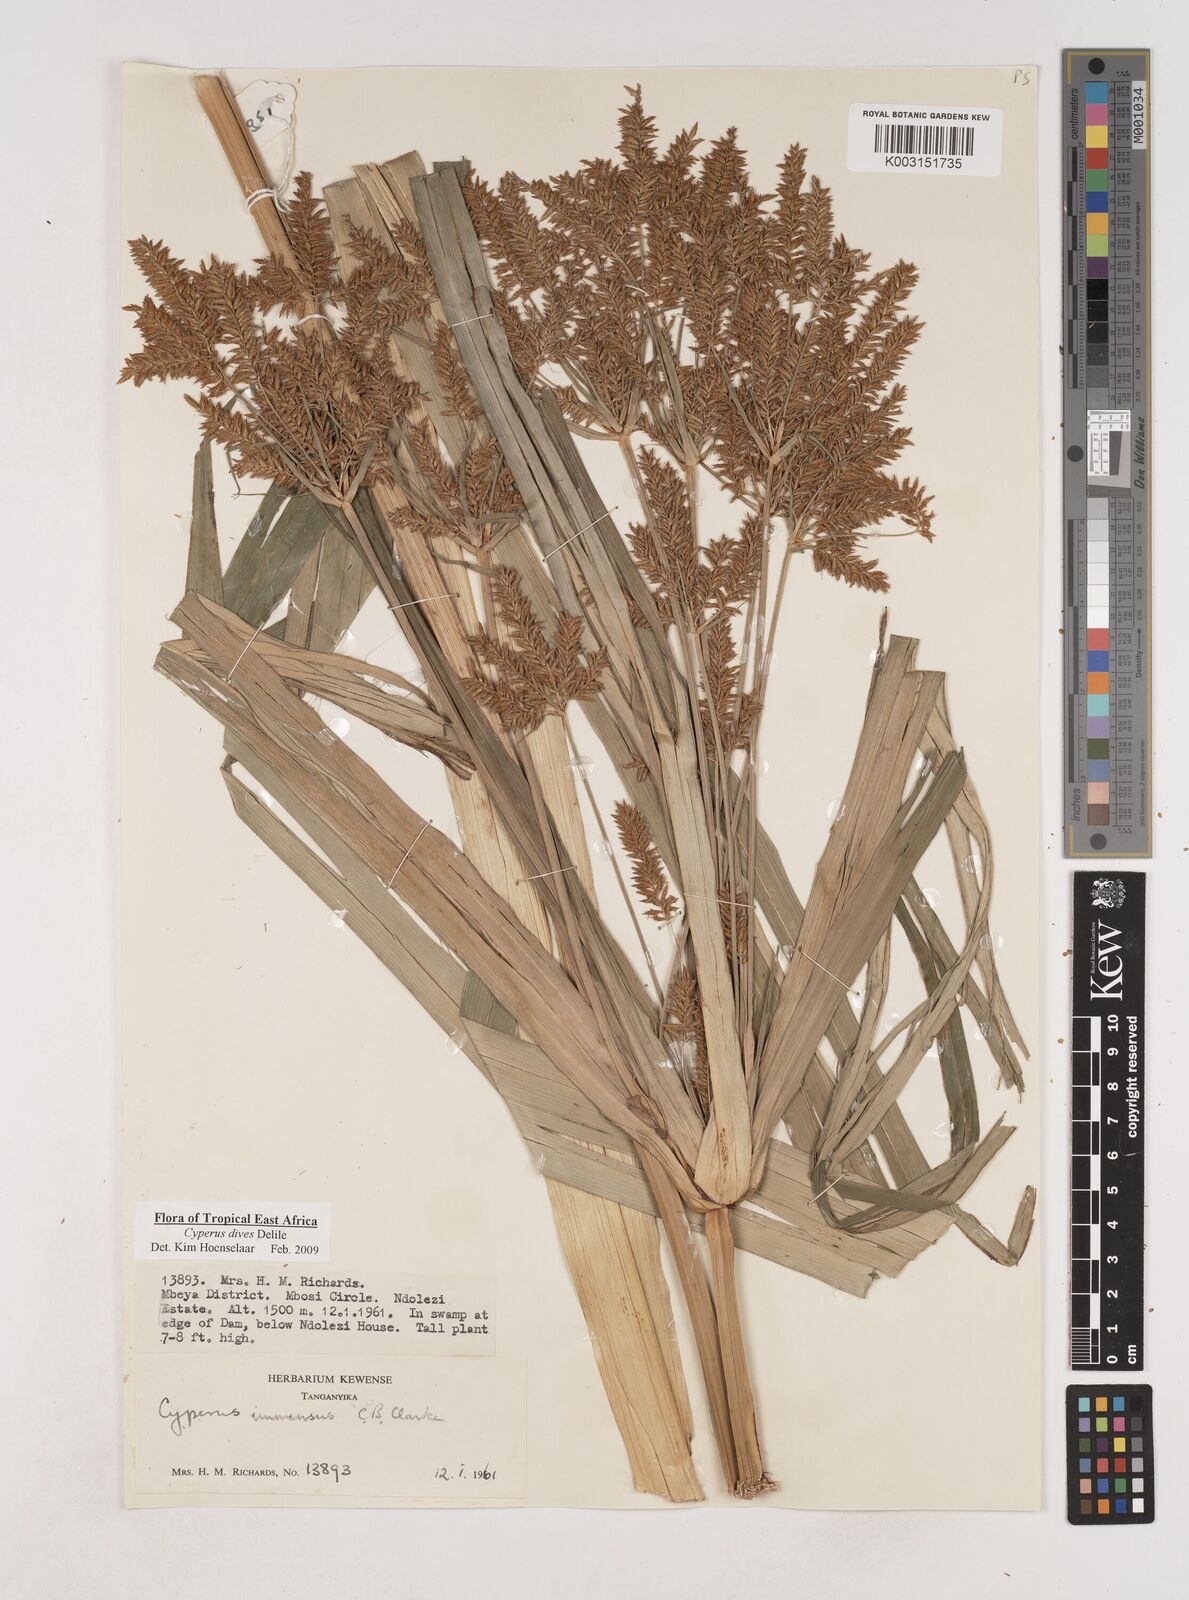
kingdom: Plantae
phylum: Tracheophyta
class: Liliopsida
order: Poales
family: Cyperaceae
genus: Cyperus
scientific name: Cyperus dives
